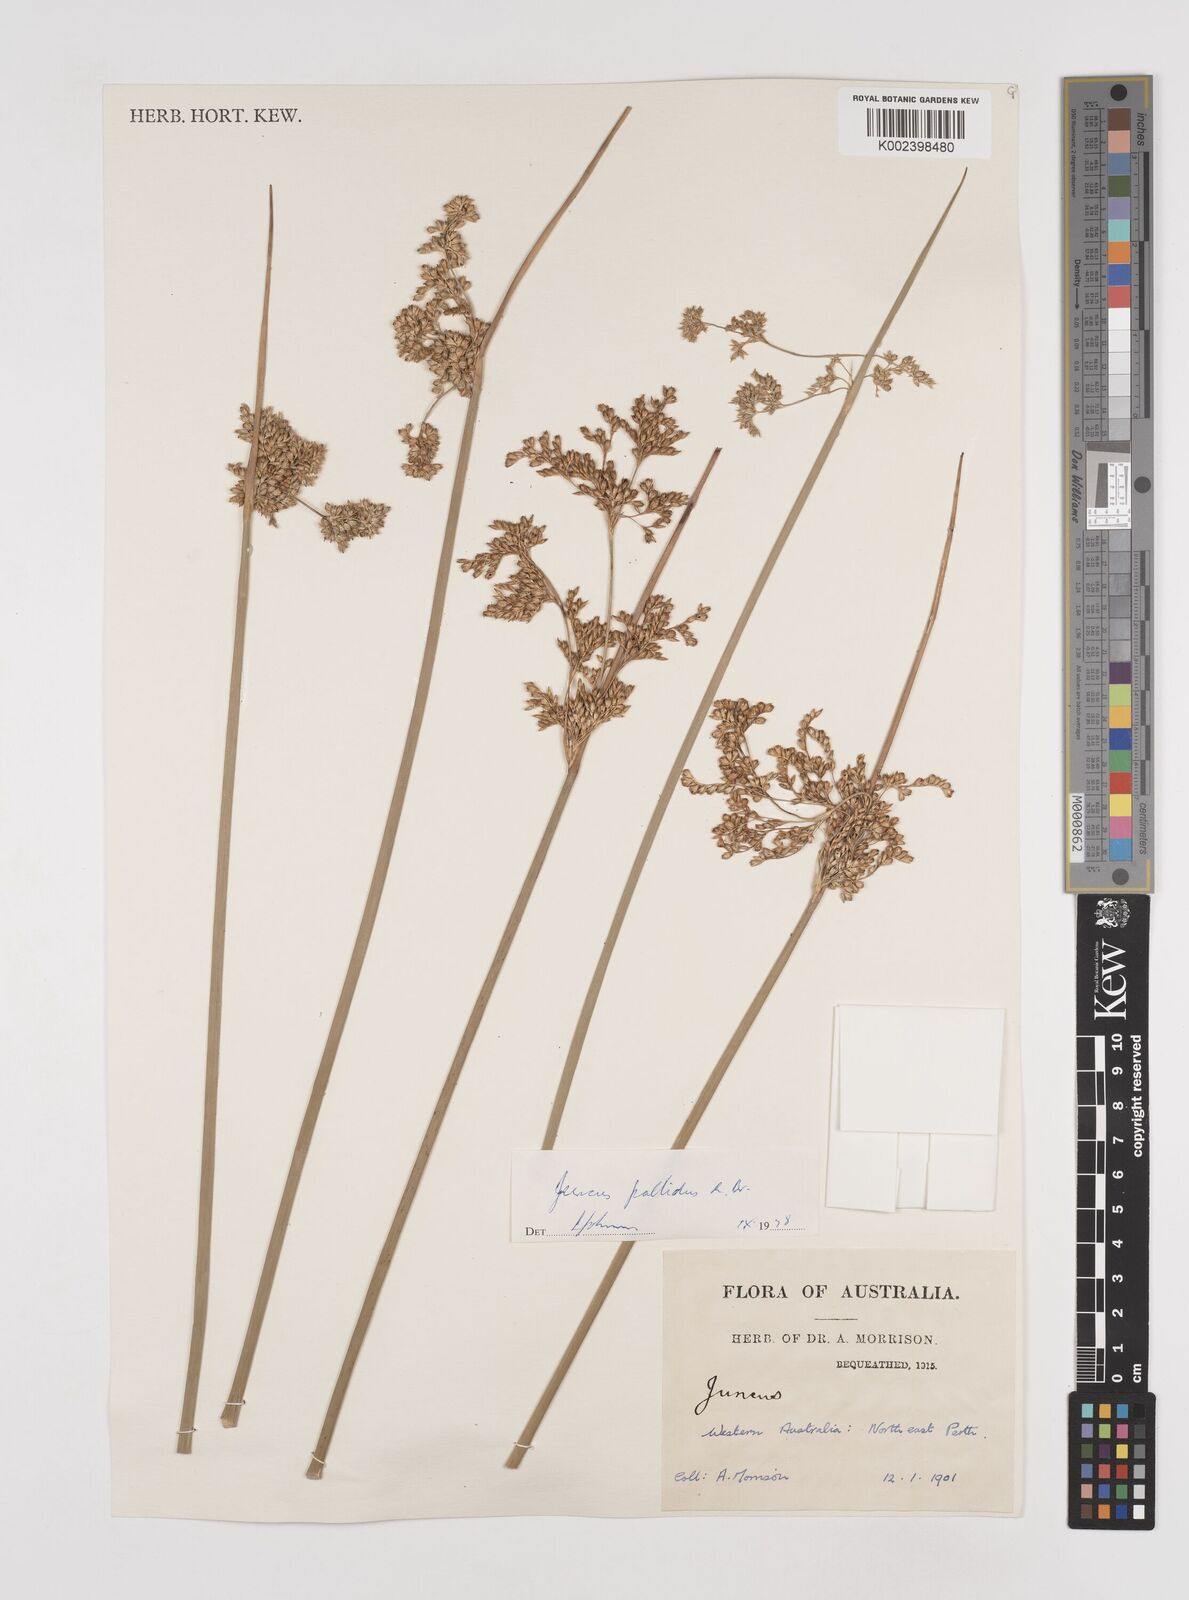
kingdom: Plantae
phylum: Tracheophyta
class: Liliopsida
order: Poales
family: Juncaceae
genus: Juncus
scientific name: Juncus pallidus
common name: Great soft-rush
